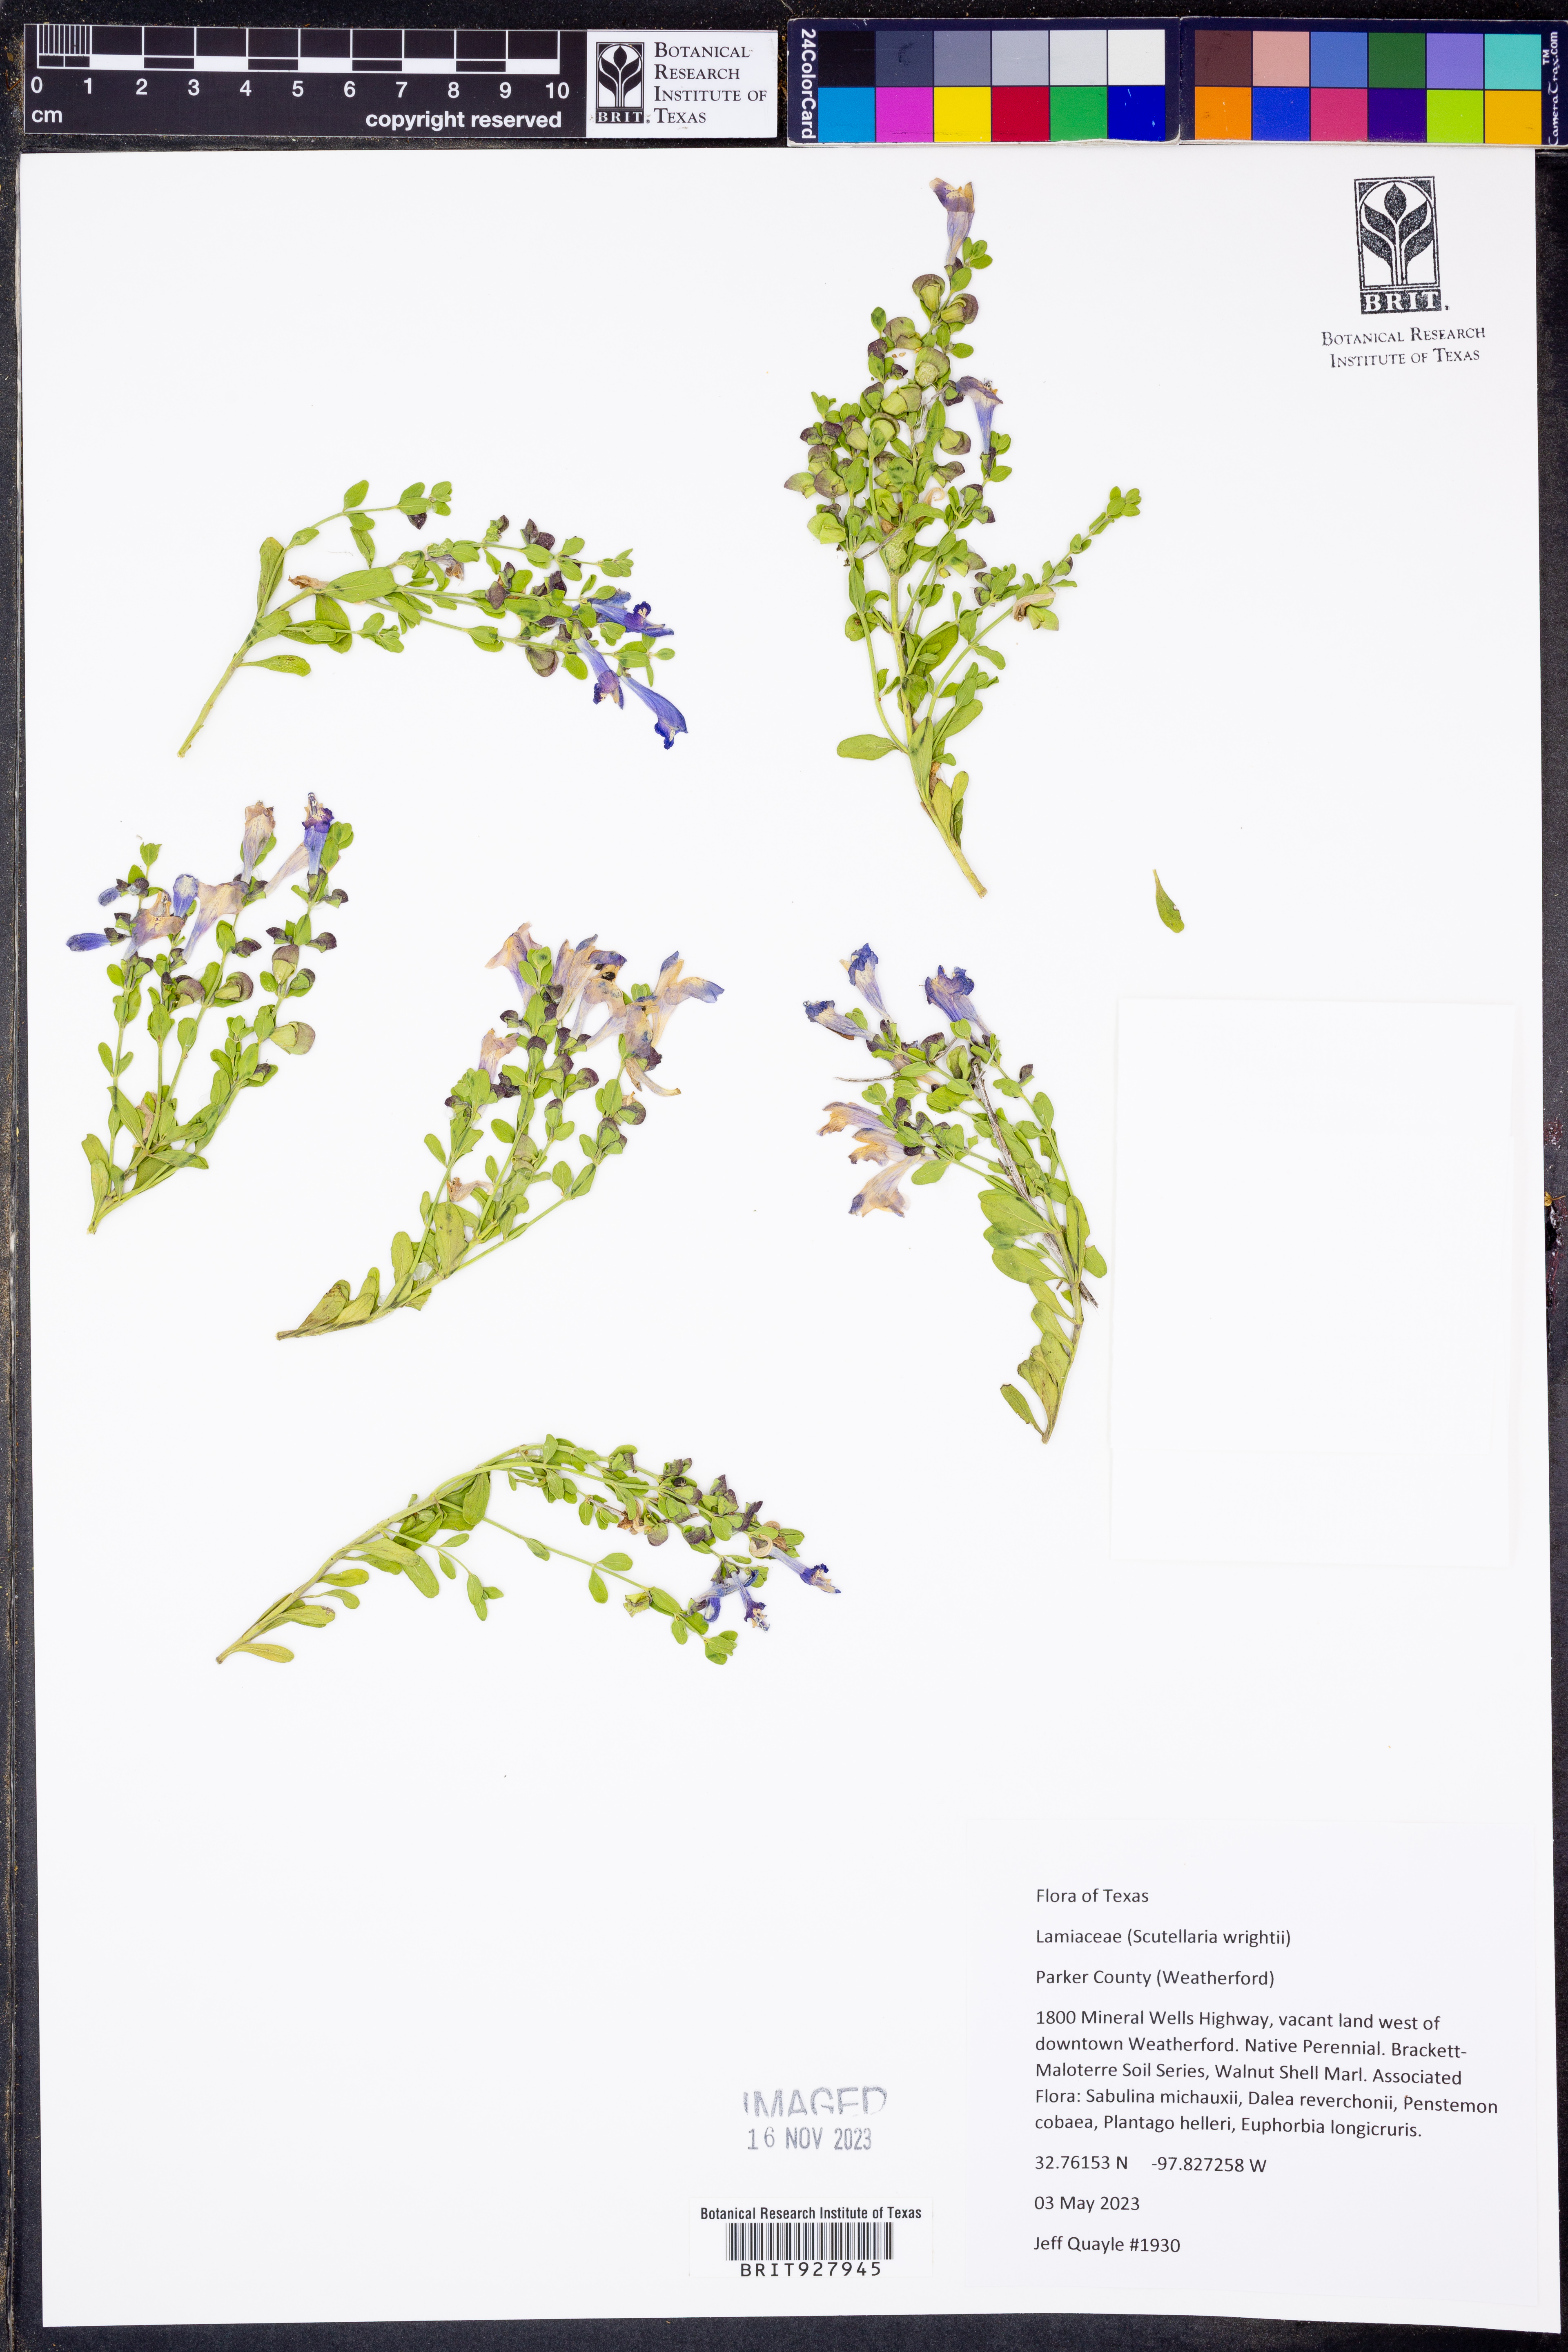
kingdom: Plantae
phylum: Tracheophyta
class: Magnoliopsida
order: Lamiales
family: Lamiaceae
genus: Scutellaria
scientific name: Scutellaria wrightii
